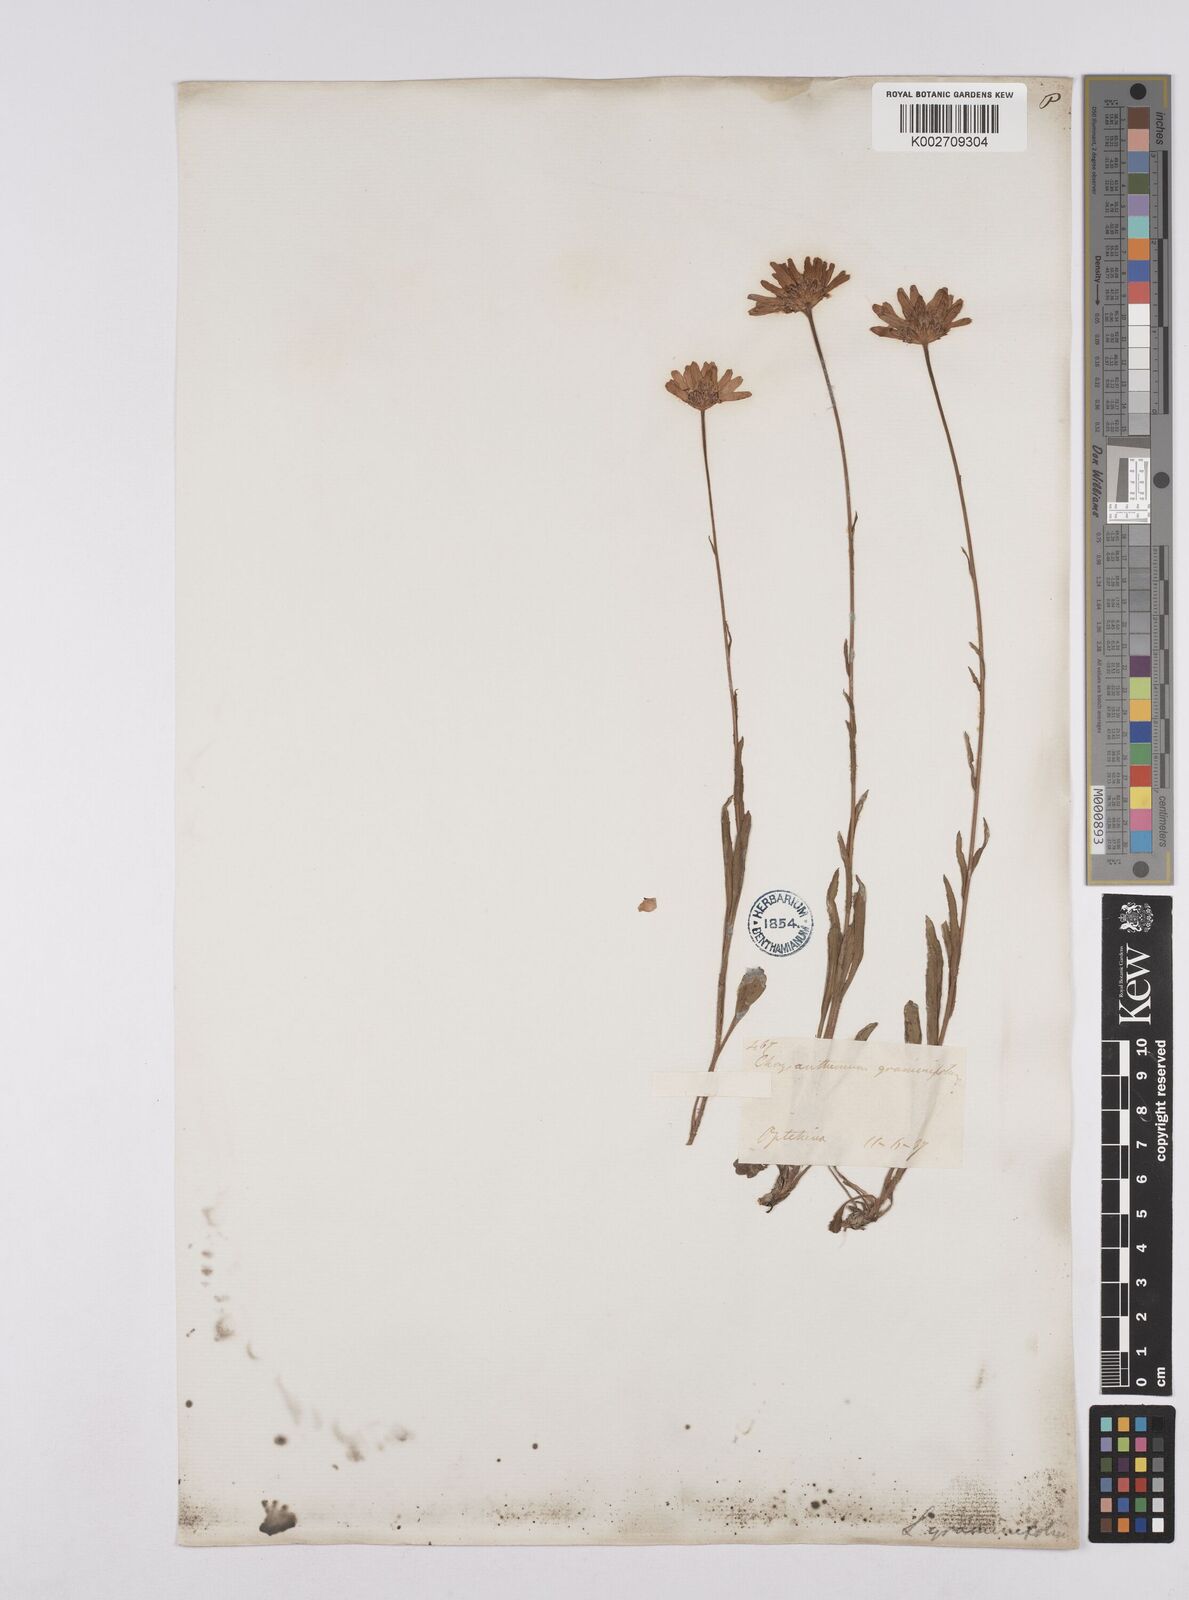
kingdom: Plantae
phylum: Tracheophyta
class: Magnoliopsida
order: Asterales
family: Asteraceae
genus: Matricaria
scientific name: Matricaria chamomilla
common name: Scented mayweed
